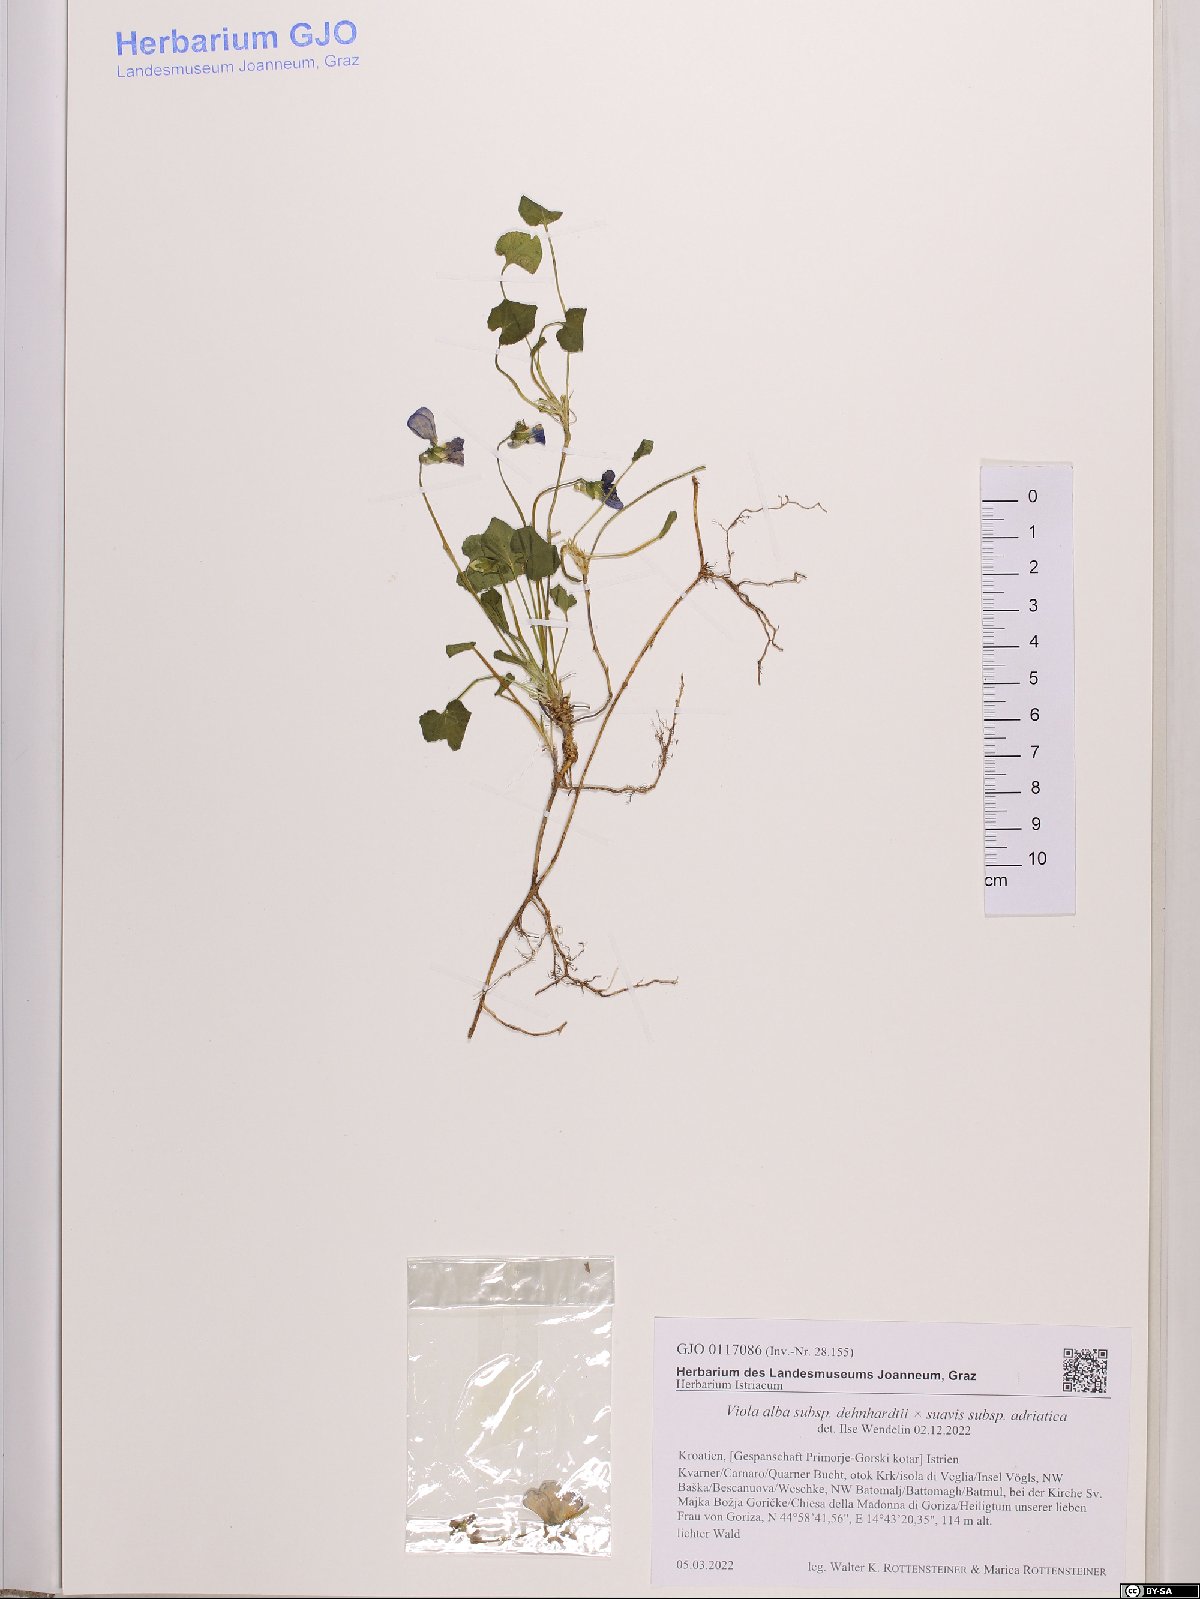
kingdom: Plantae
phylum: Tracheophyta
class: Magnoliopsida
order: Malpighiales
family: Violaceae
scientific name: Violaceae
